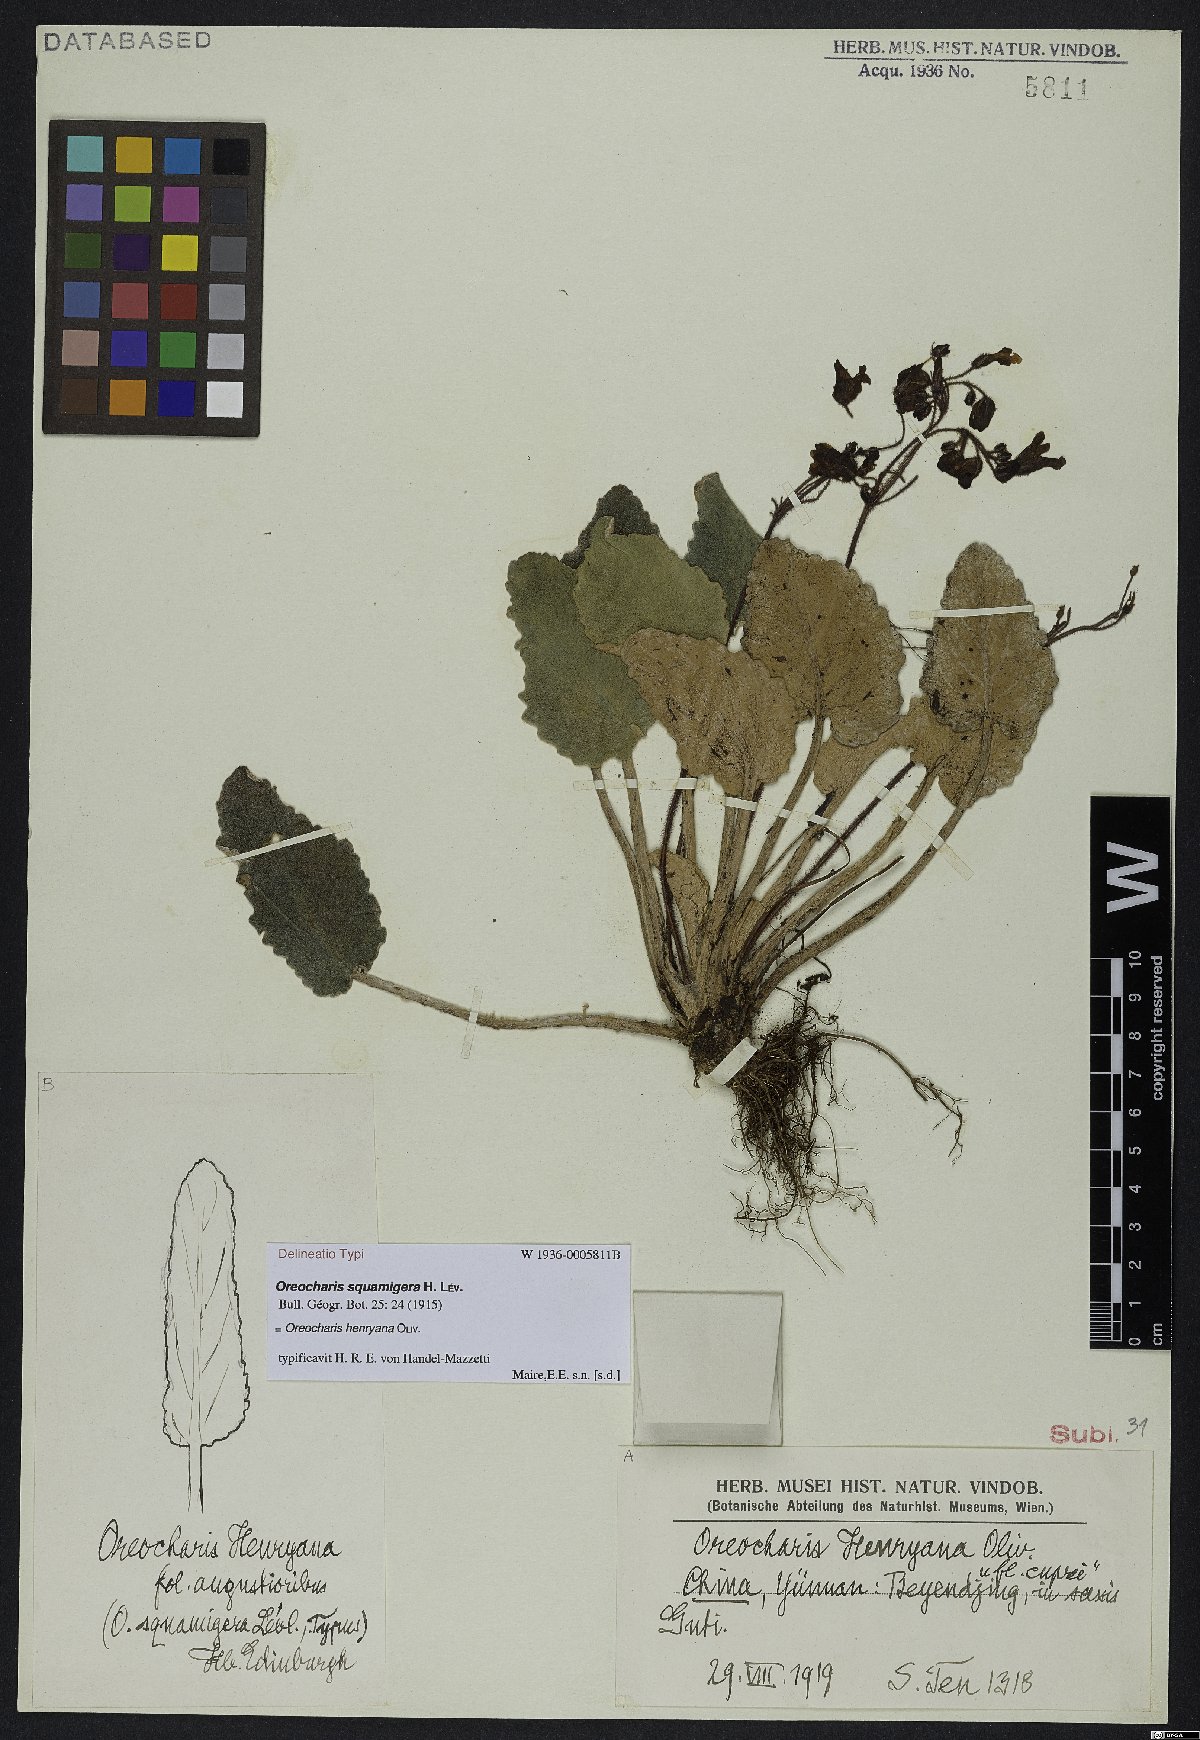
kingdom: Plantae
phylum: Tracheophyta
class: Magnoliopsida
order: Lamiales
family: Gesneriaceae
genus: Oreocharis
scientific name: Oreocharis henryana
